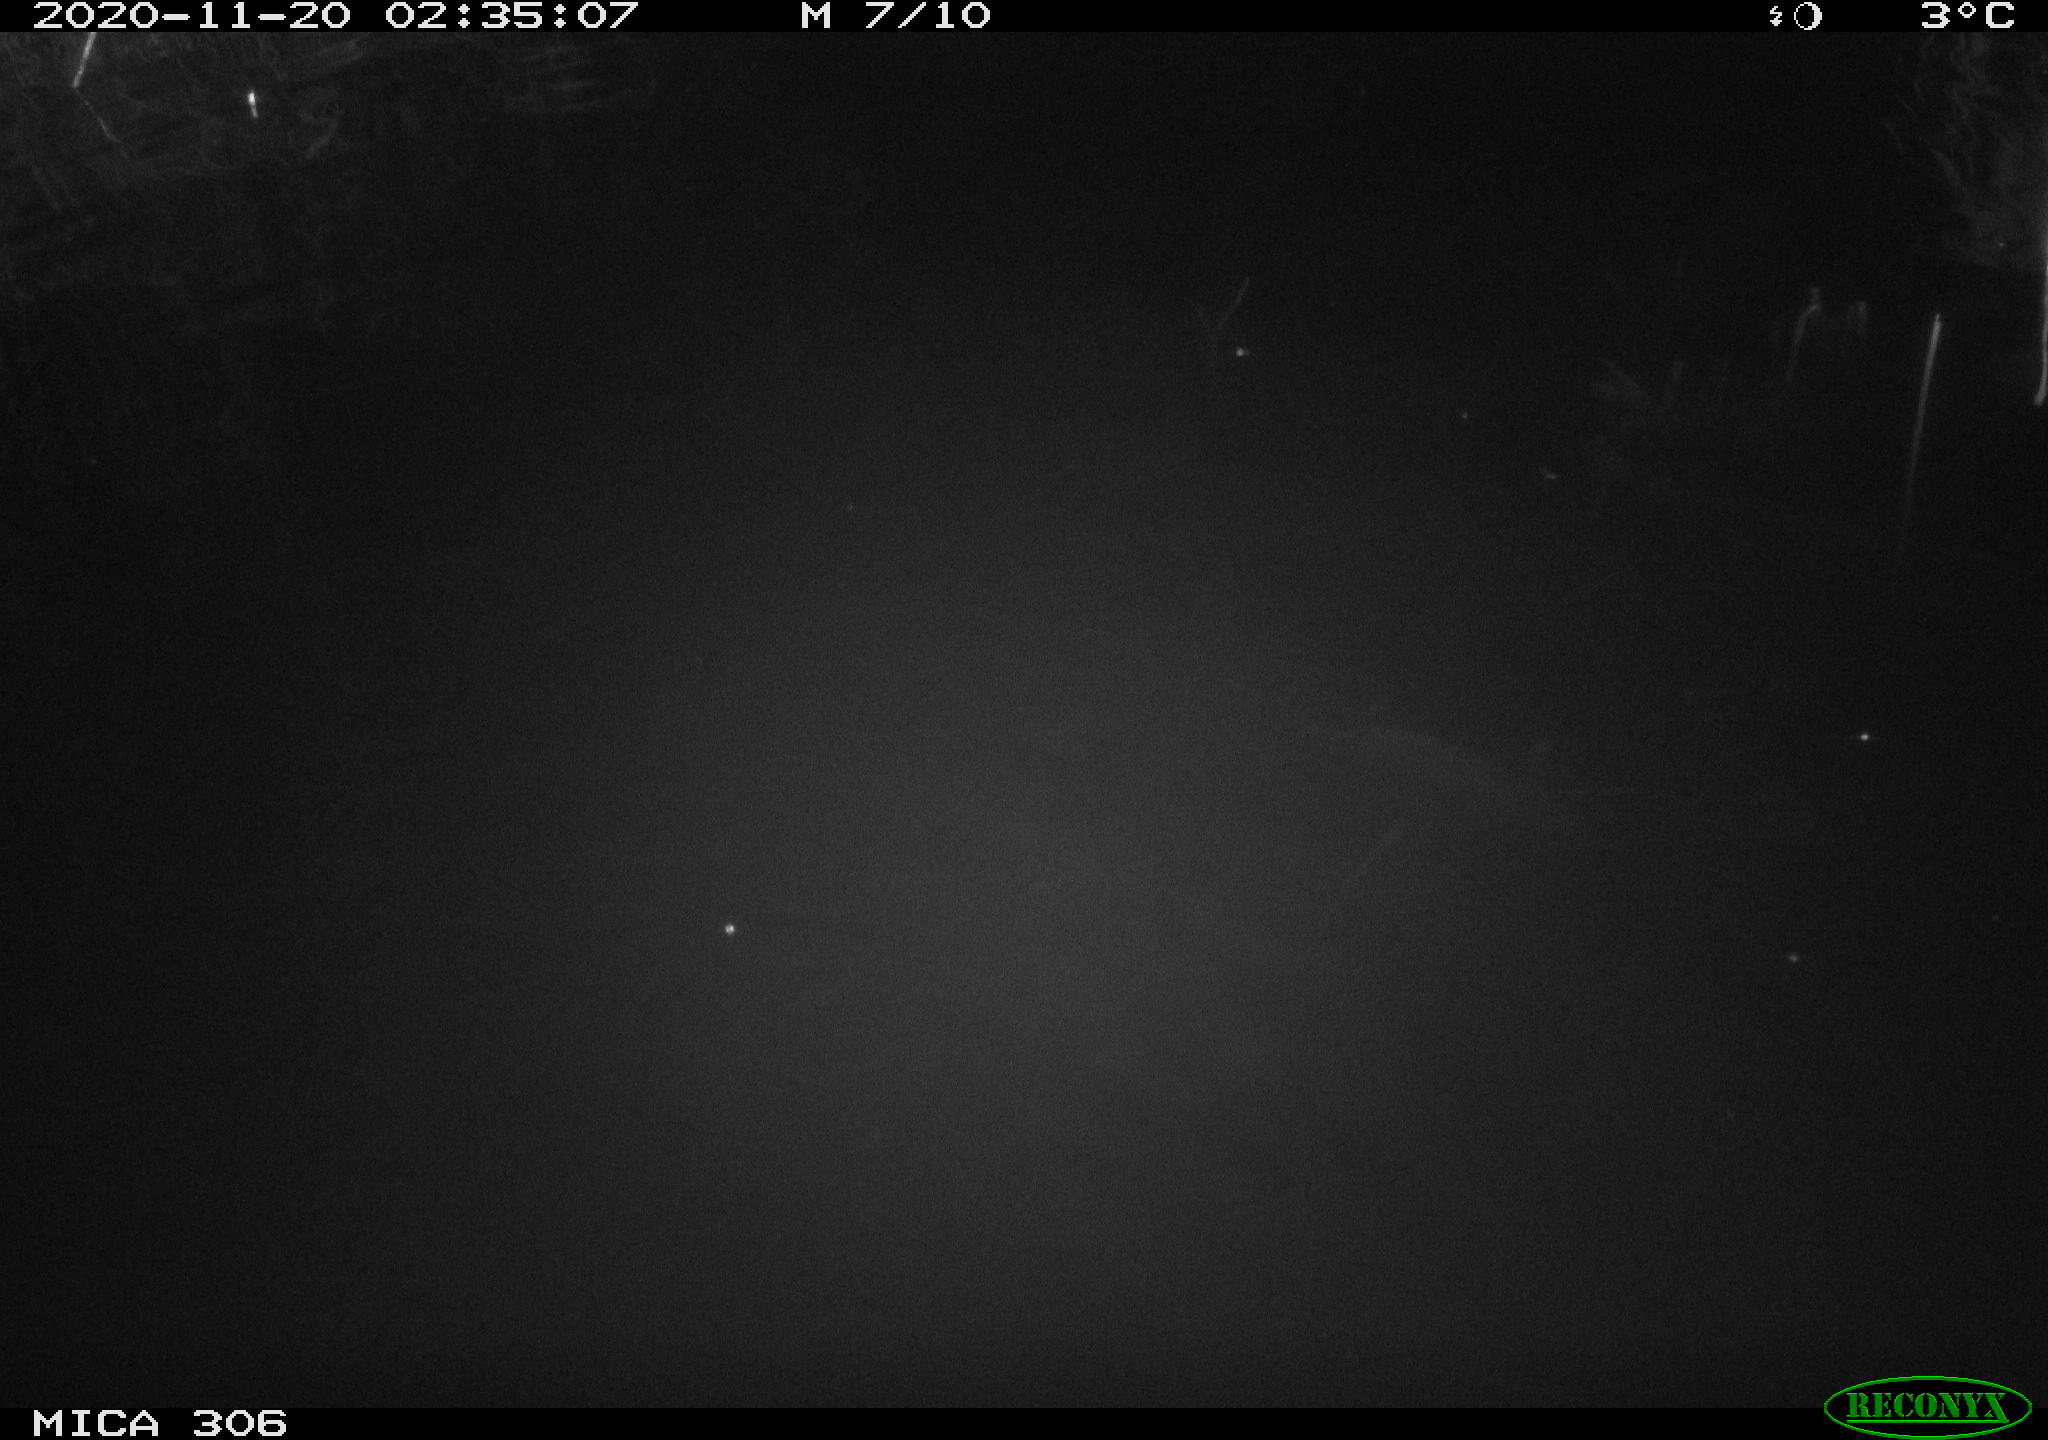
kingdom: Animalia
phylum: Chordata
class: Mammalia
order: Rodentia
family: Cricetidae
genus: Ondatra
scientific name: Ondatra zibethicus
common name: Muskrat
